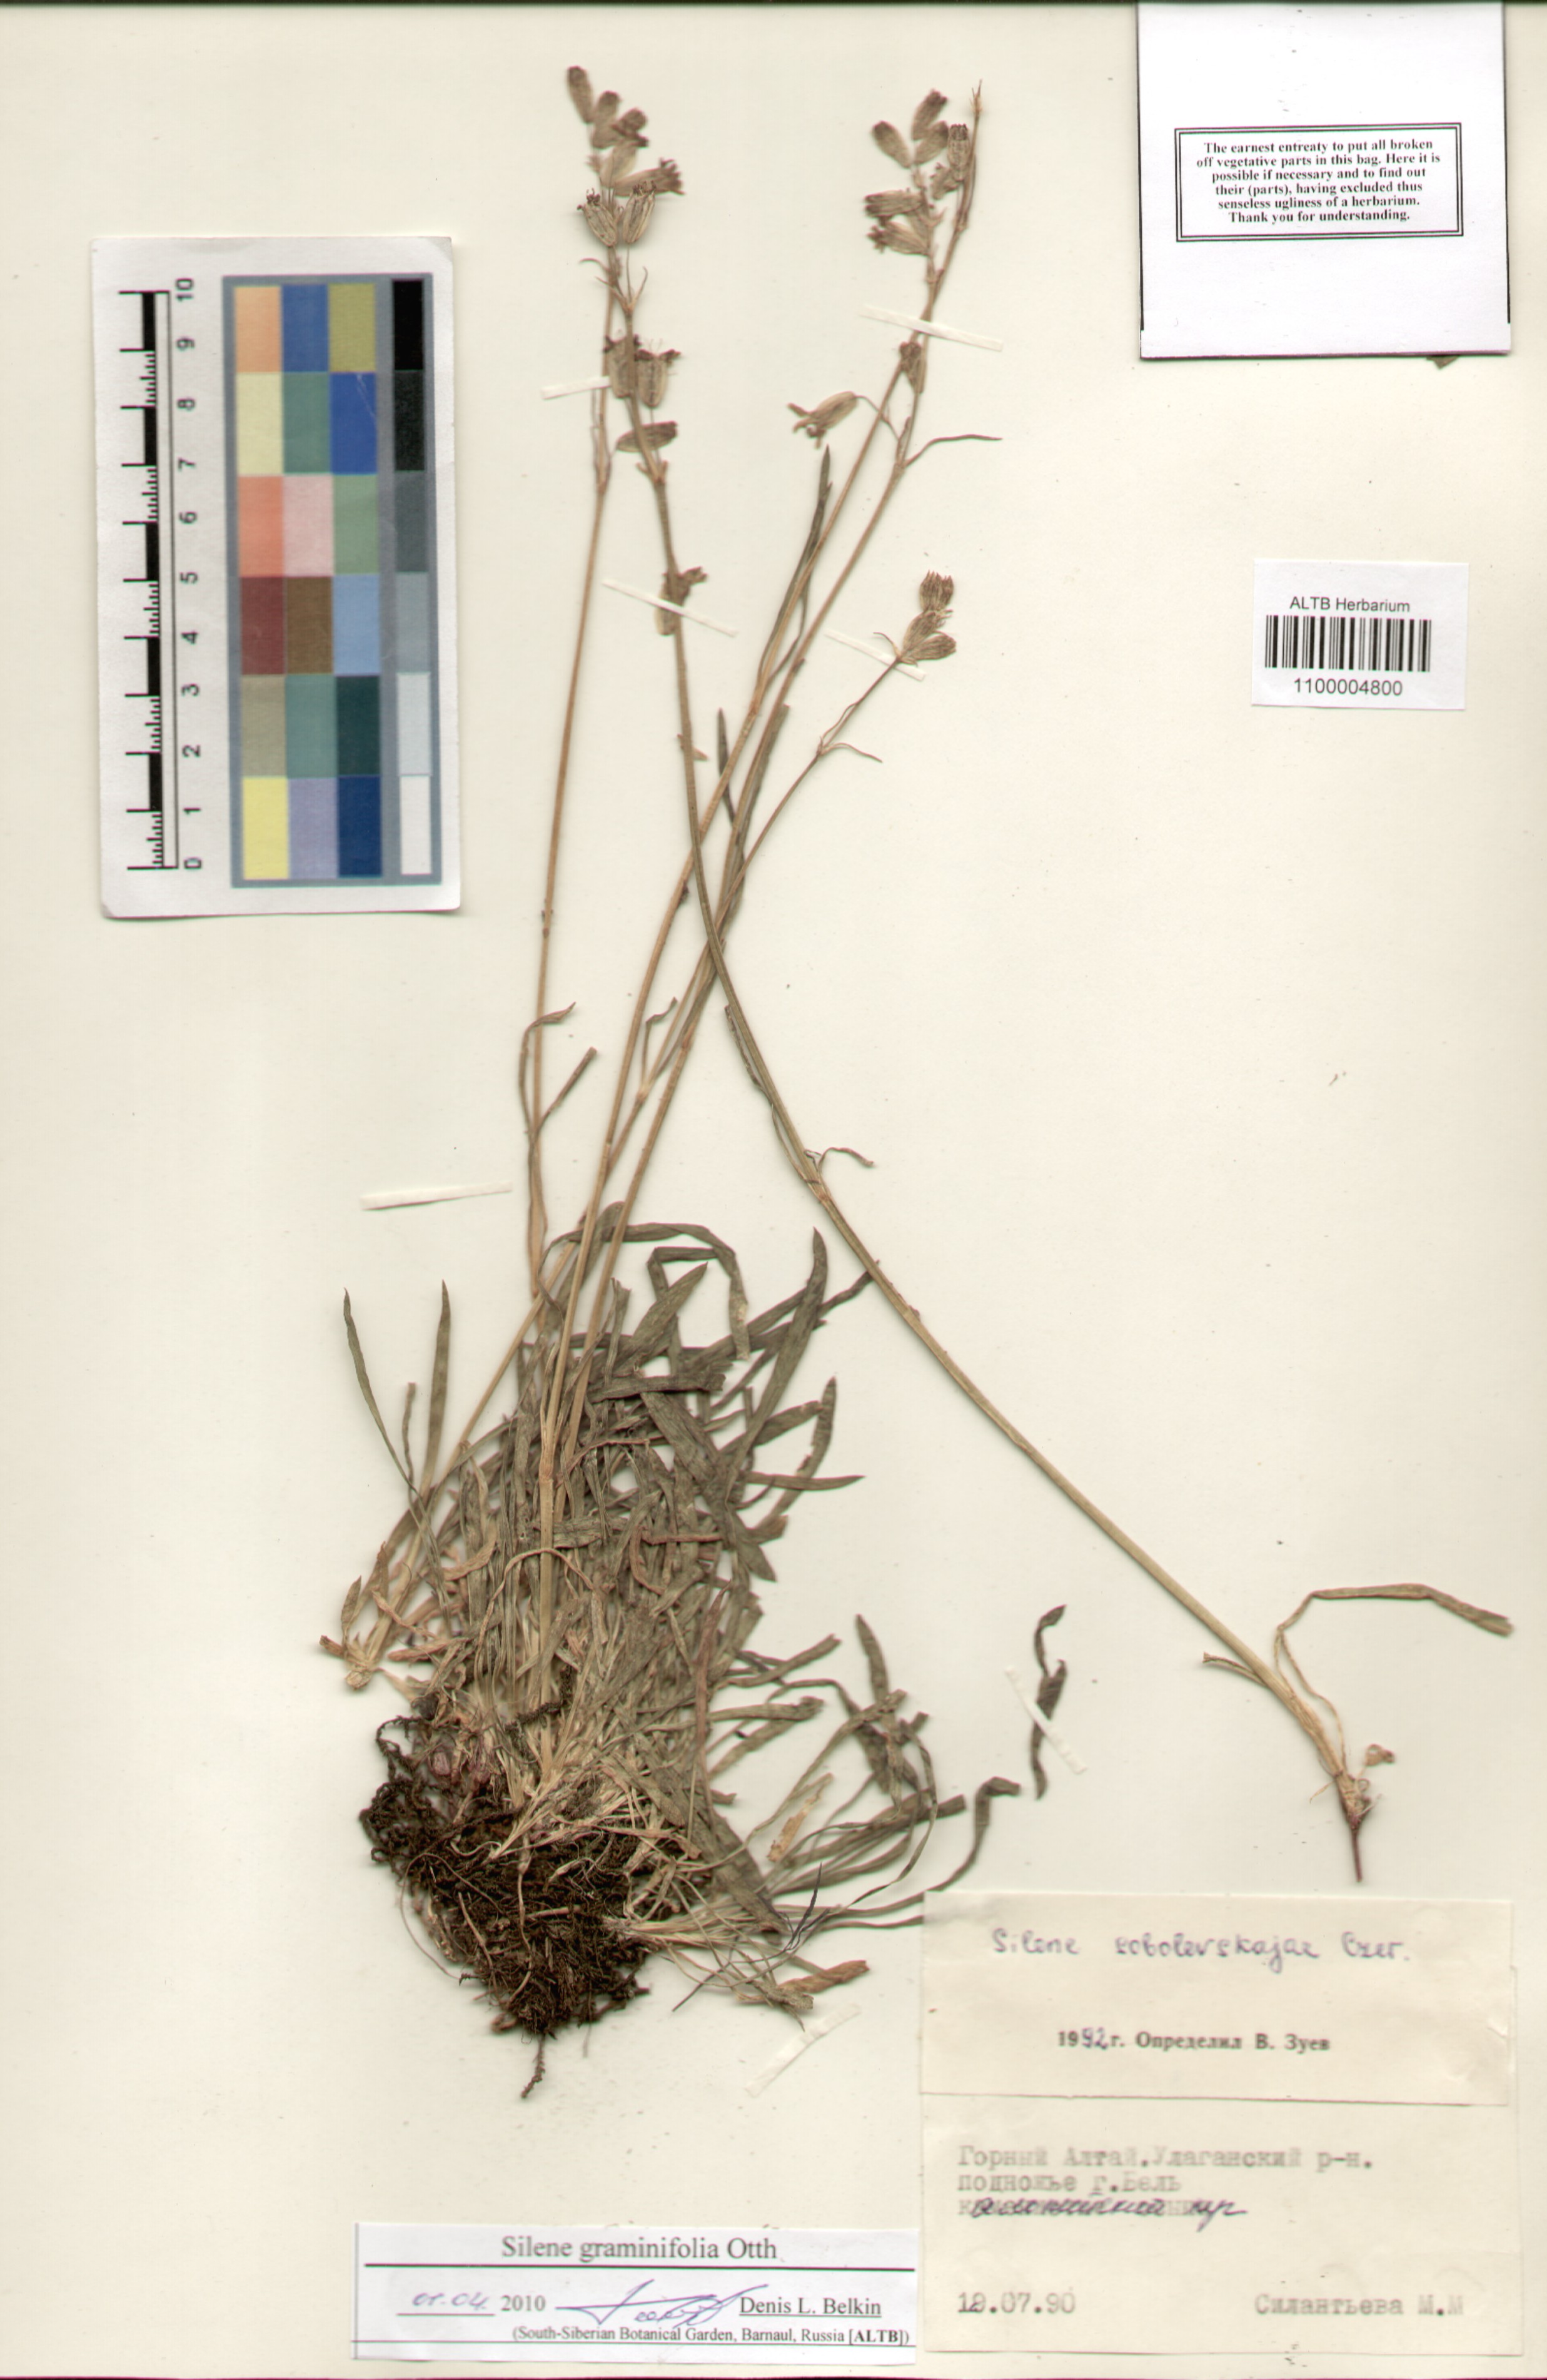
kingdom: Plantae
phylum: Tracheophyta
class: Magnoliopsida
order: Caryophyllales
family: Caryophyllaceae
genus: Silene
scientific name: Silene graminifolia
